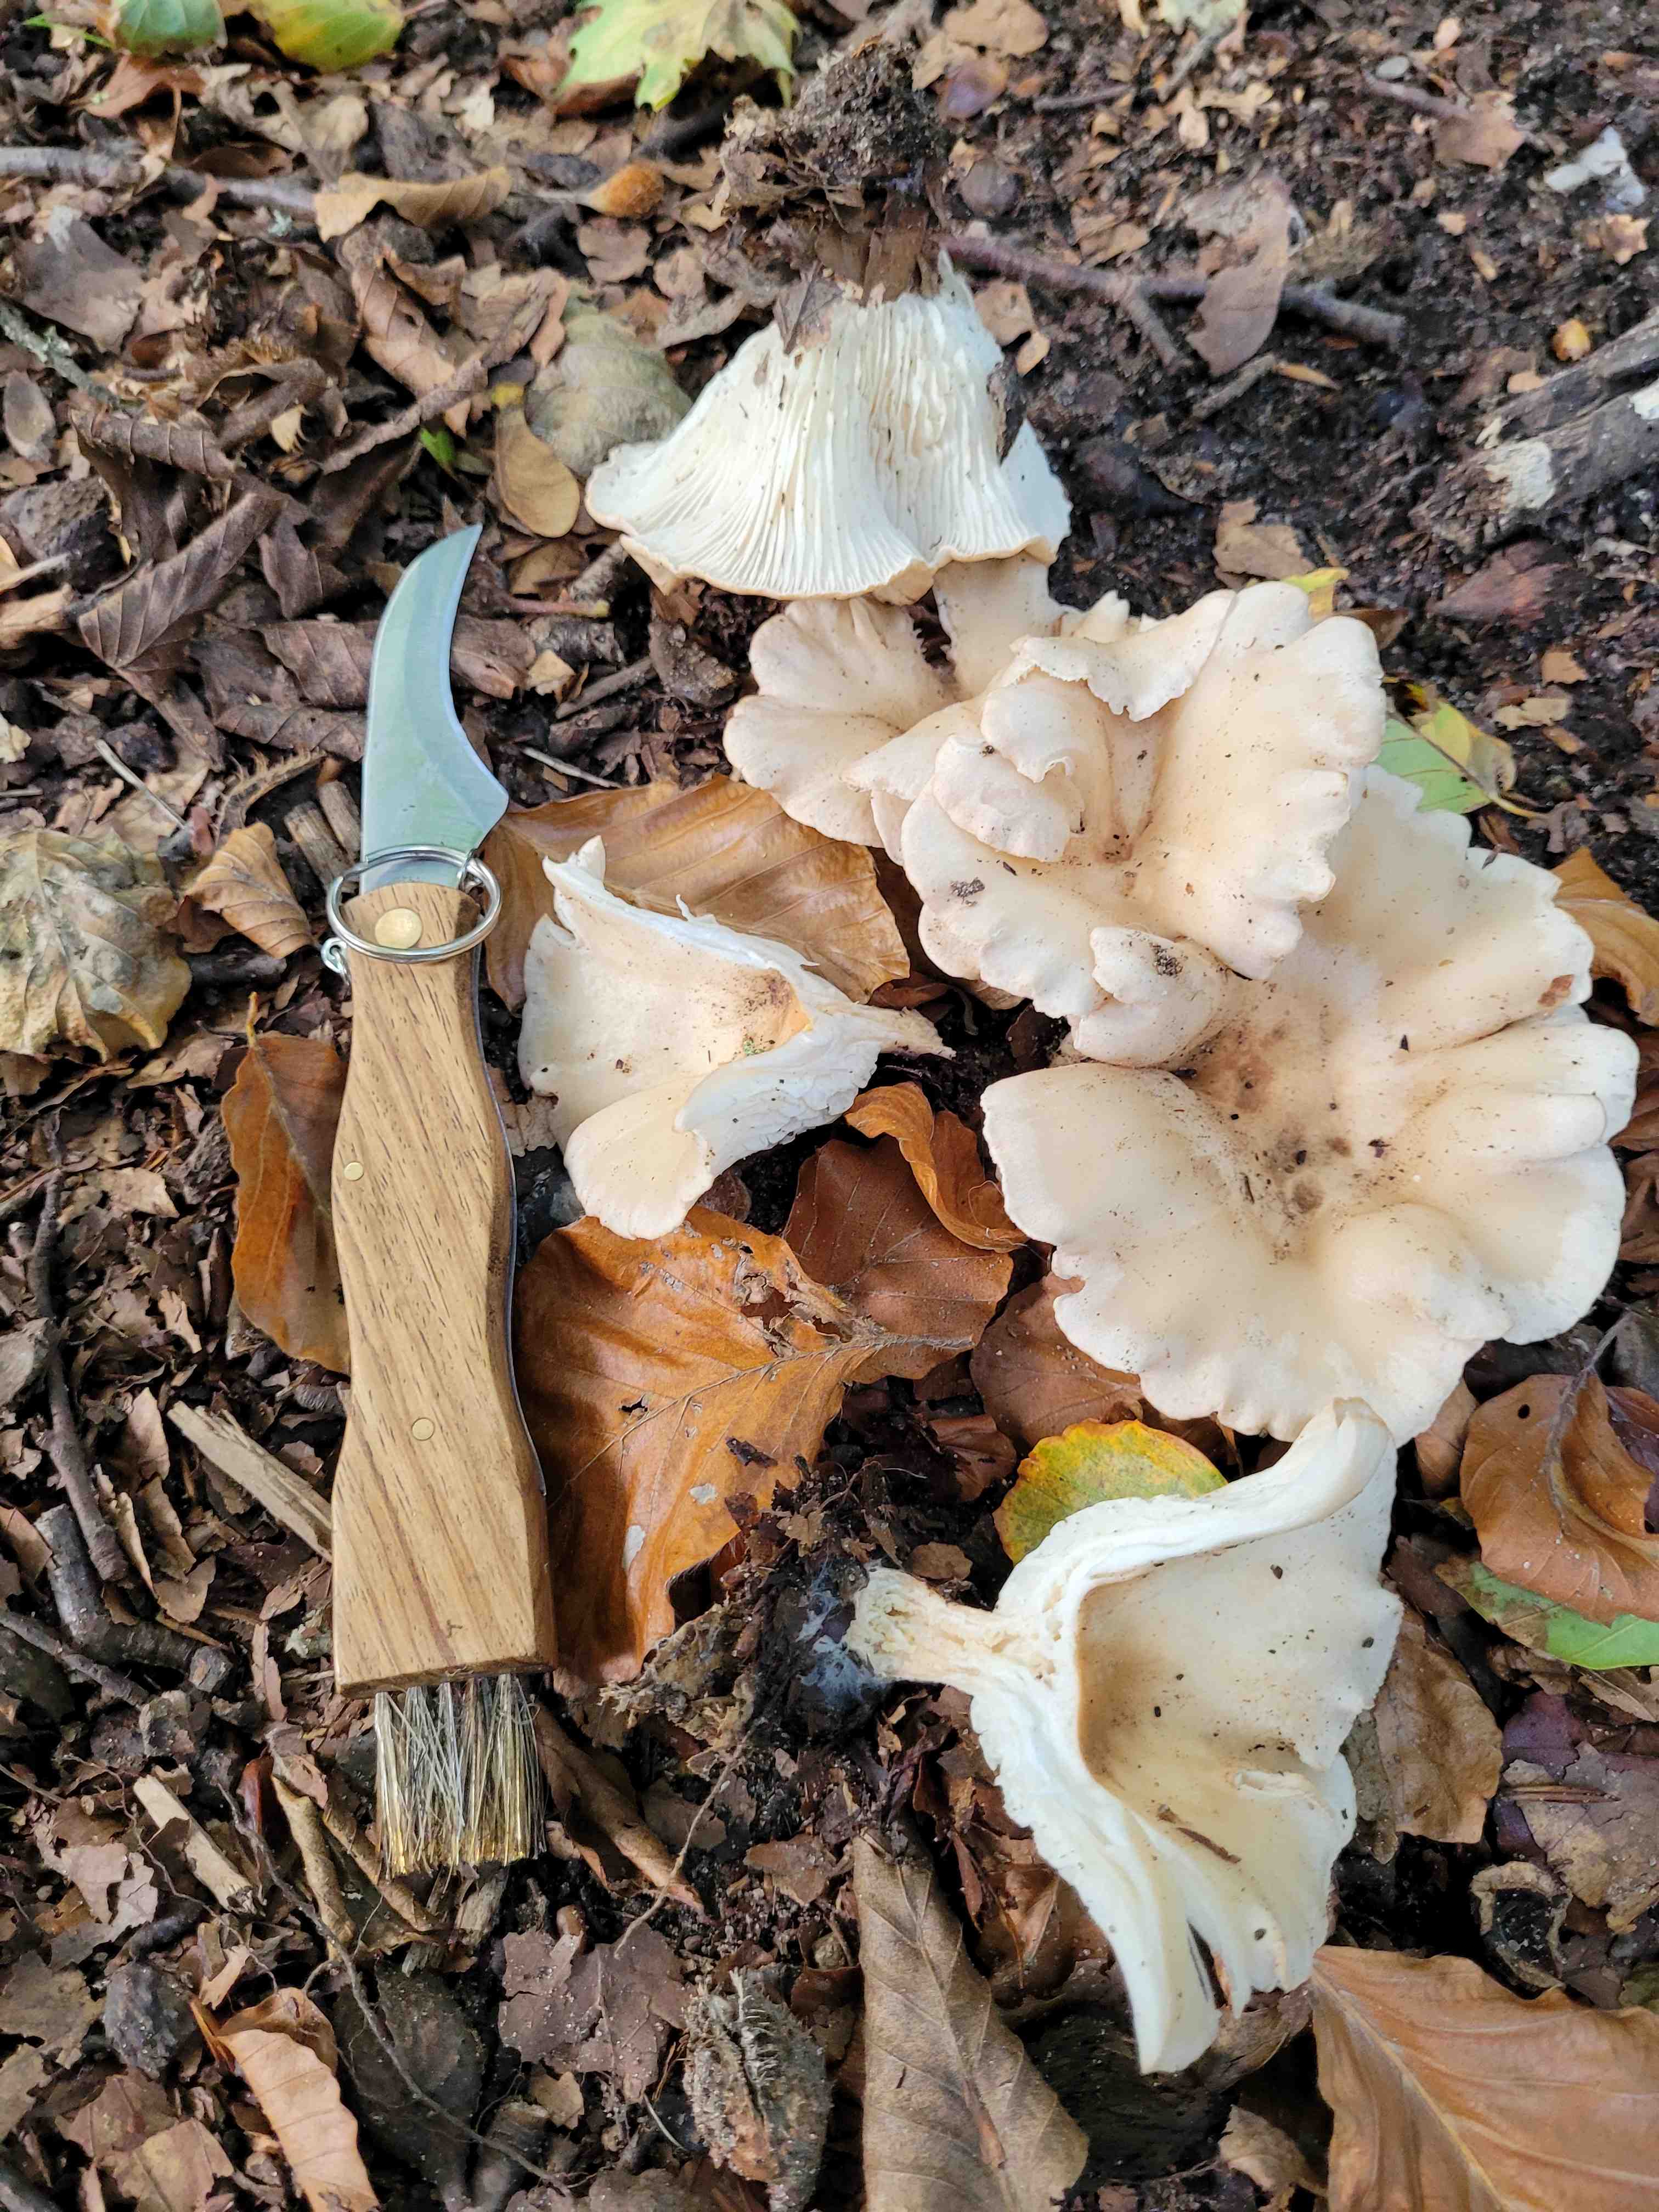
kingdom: Fungi
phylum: Basidiomycota
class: Agaricomycetes
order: Agaricales
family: Tricholomataceae
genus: Infundibulicybe
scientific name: Infundibulicybe gibba
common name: almindelig tragthat
